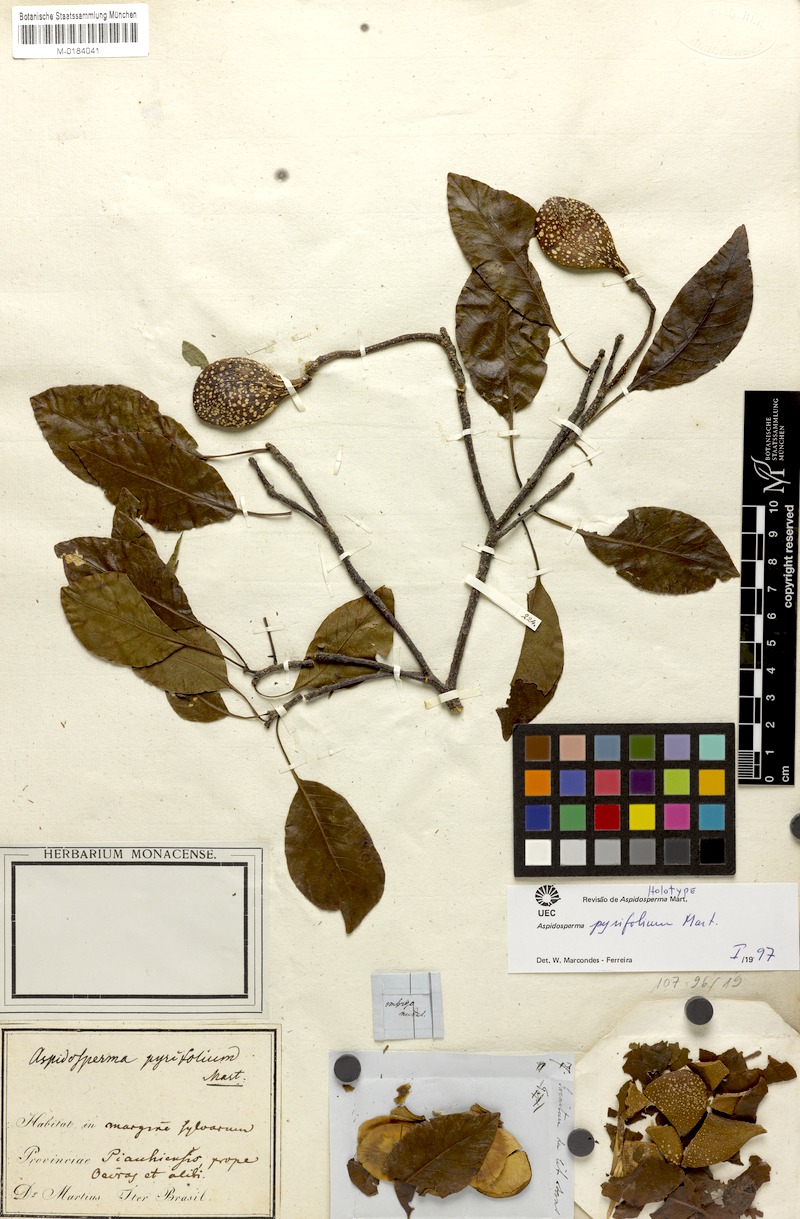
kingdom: Plantae
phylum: Tracheophyta
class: Magnoliopsida
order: Gentianales
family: Apocynaceae
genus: Aspidosperma
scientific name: Aspidosperma pyrifolium
